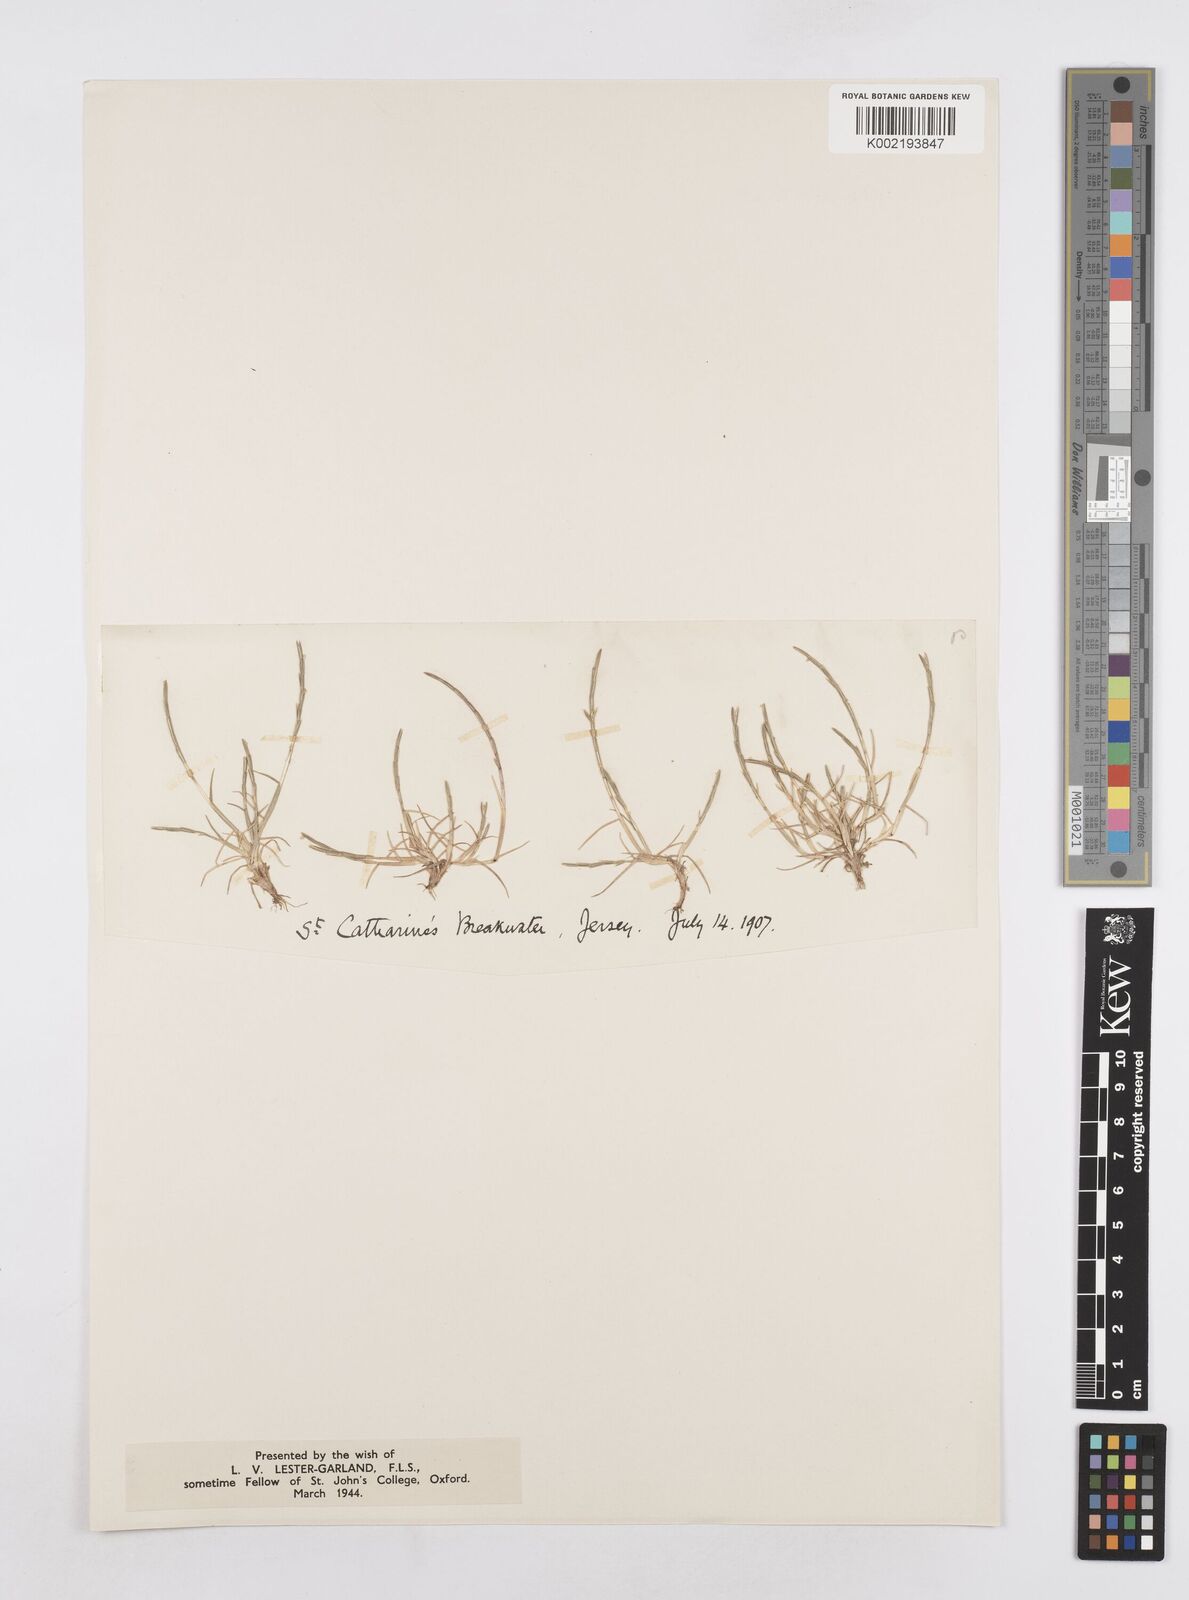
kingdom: Plantae
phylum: Tracheophyta
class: Liliopsida
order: Poales
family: Poaceae
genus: Parapholis
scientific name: Parapholis strigosa
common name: Hard-grass
